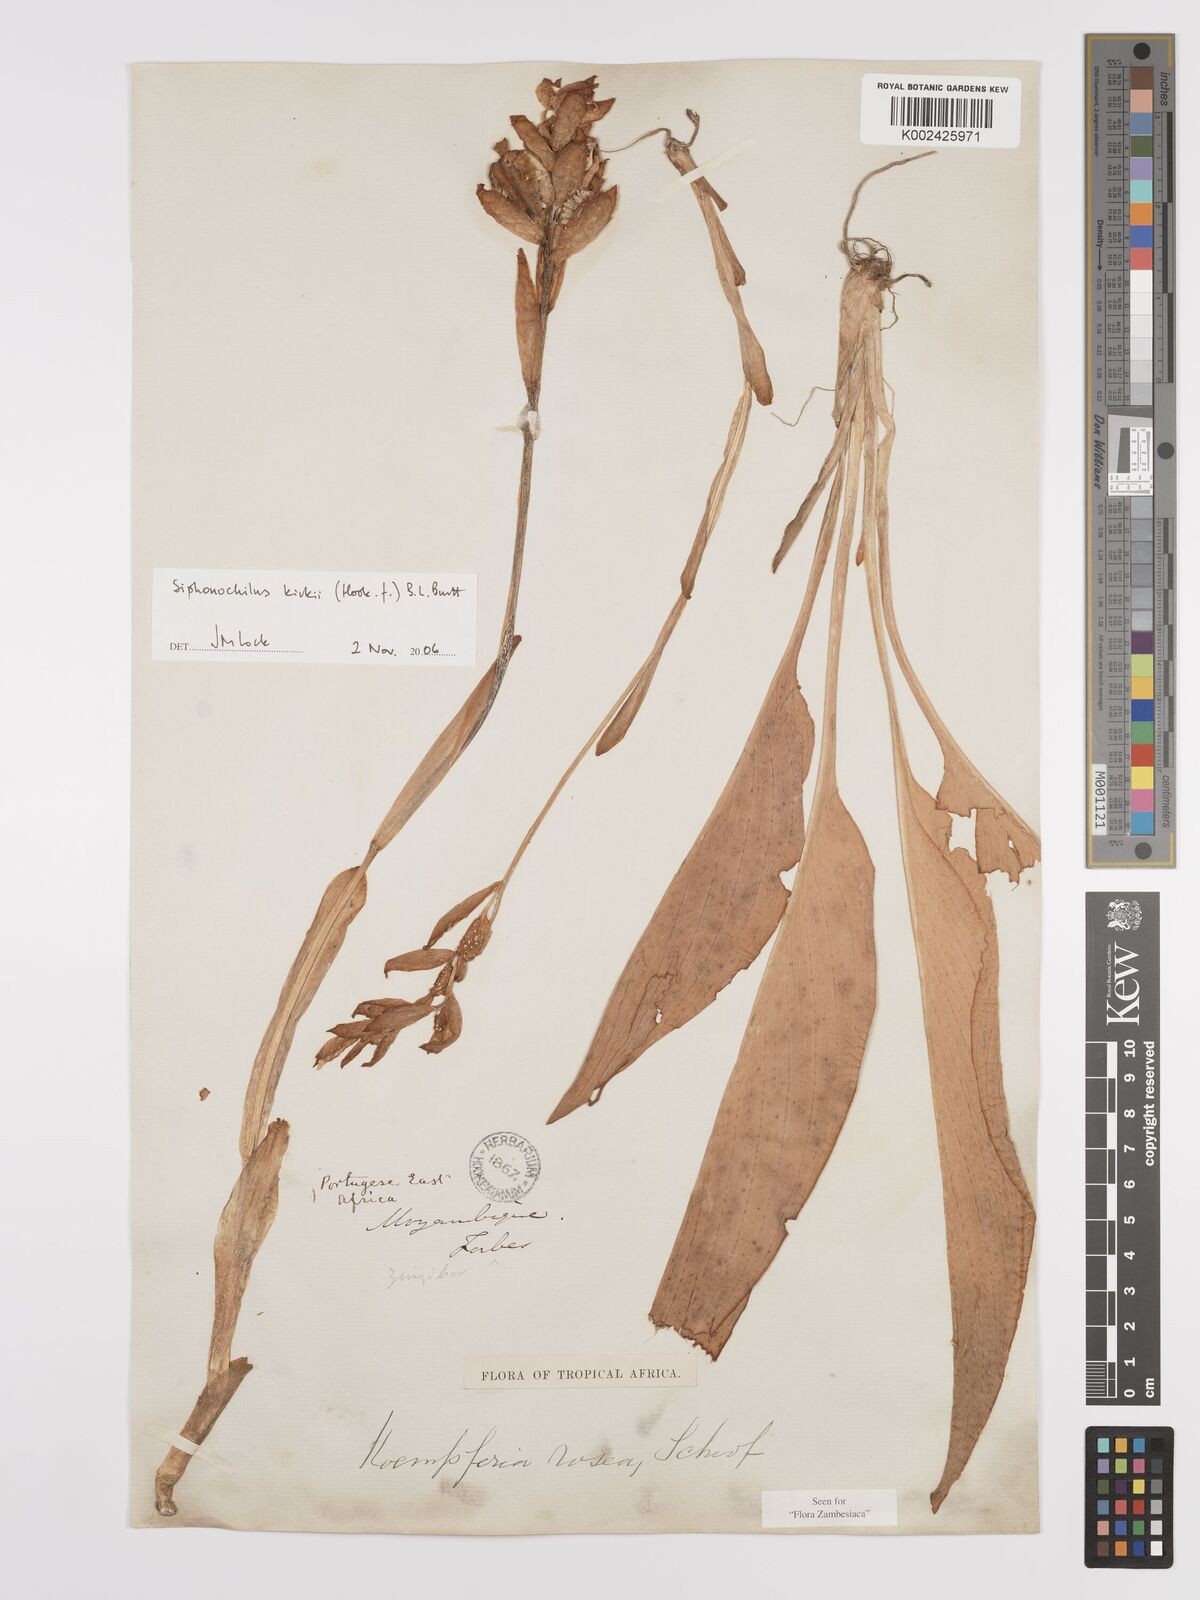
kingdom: Plantae
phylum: Tracheophyta
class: Liliopsida
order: Zingiberales
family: Zingiberaceae
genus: Siphonochilus
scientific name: Siphonochilus kirkii
